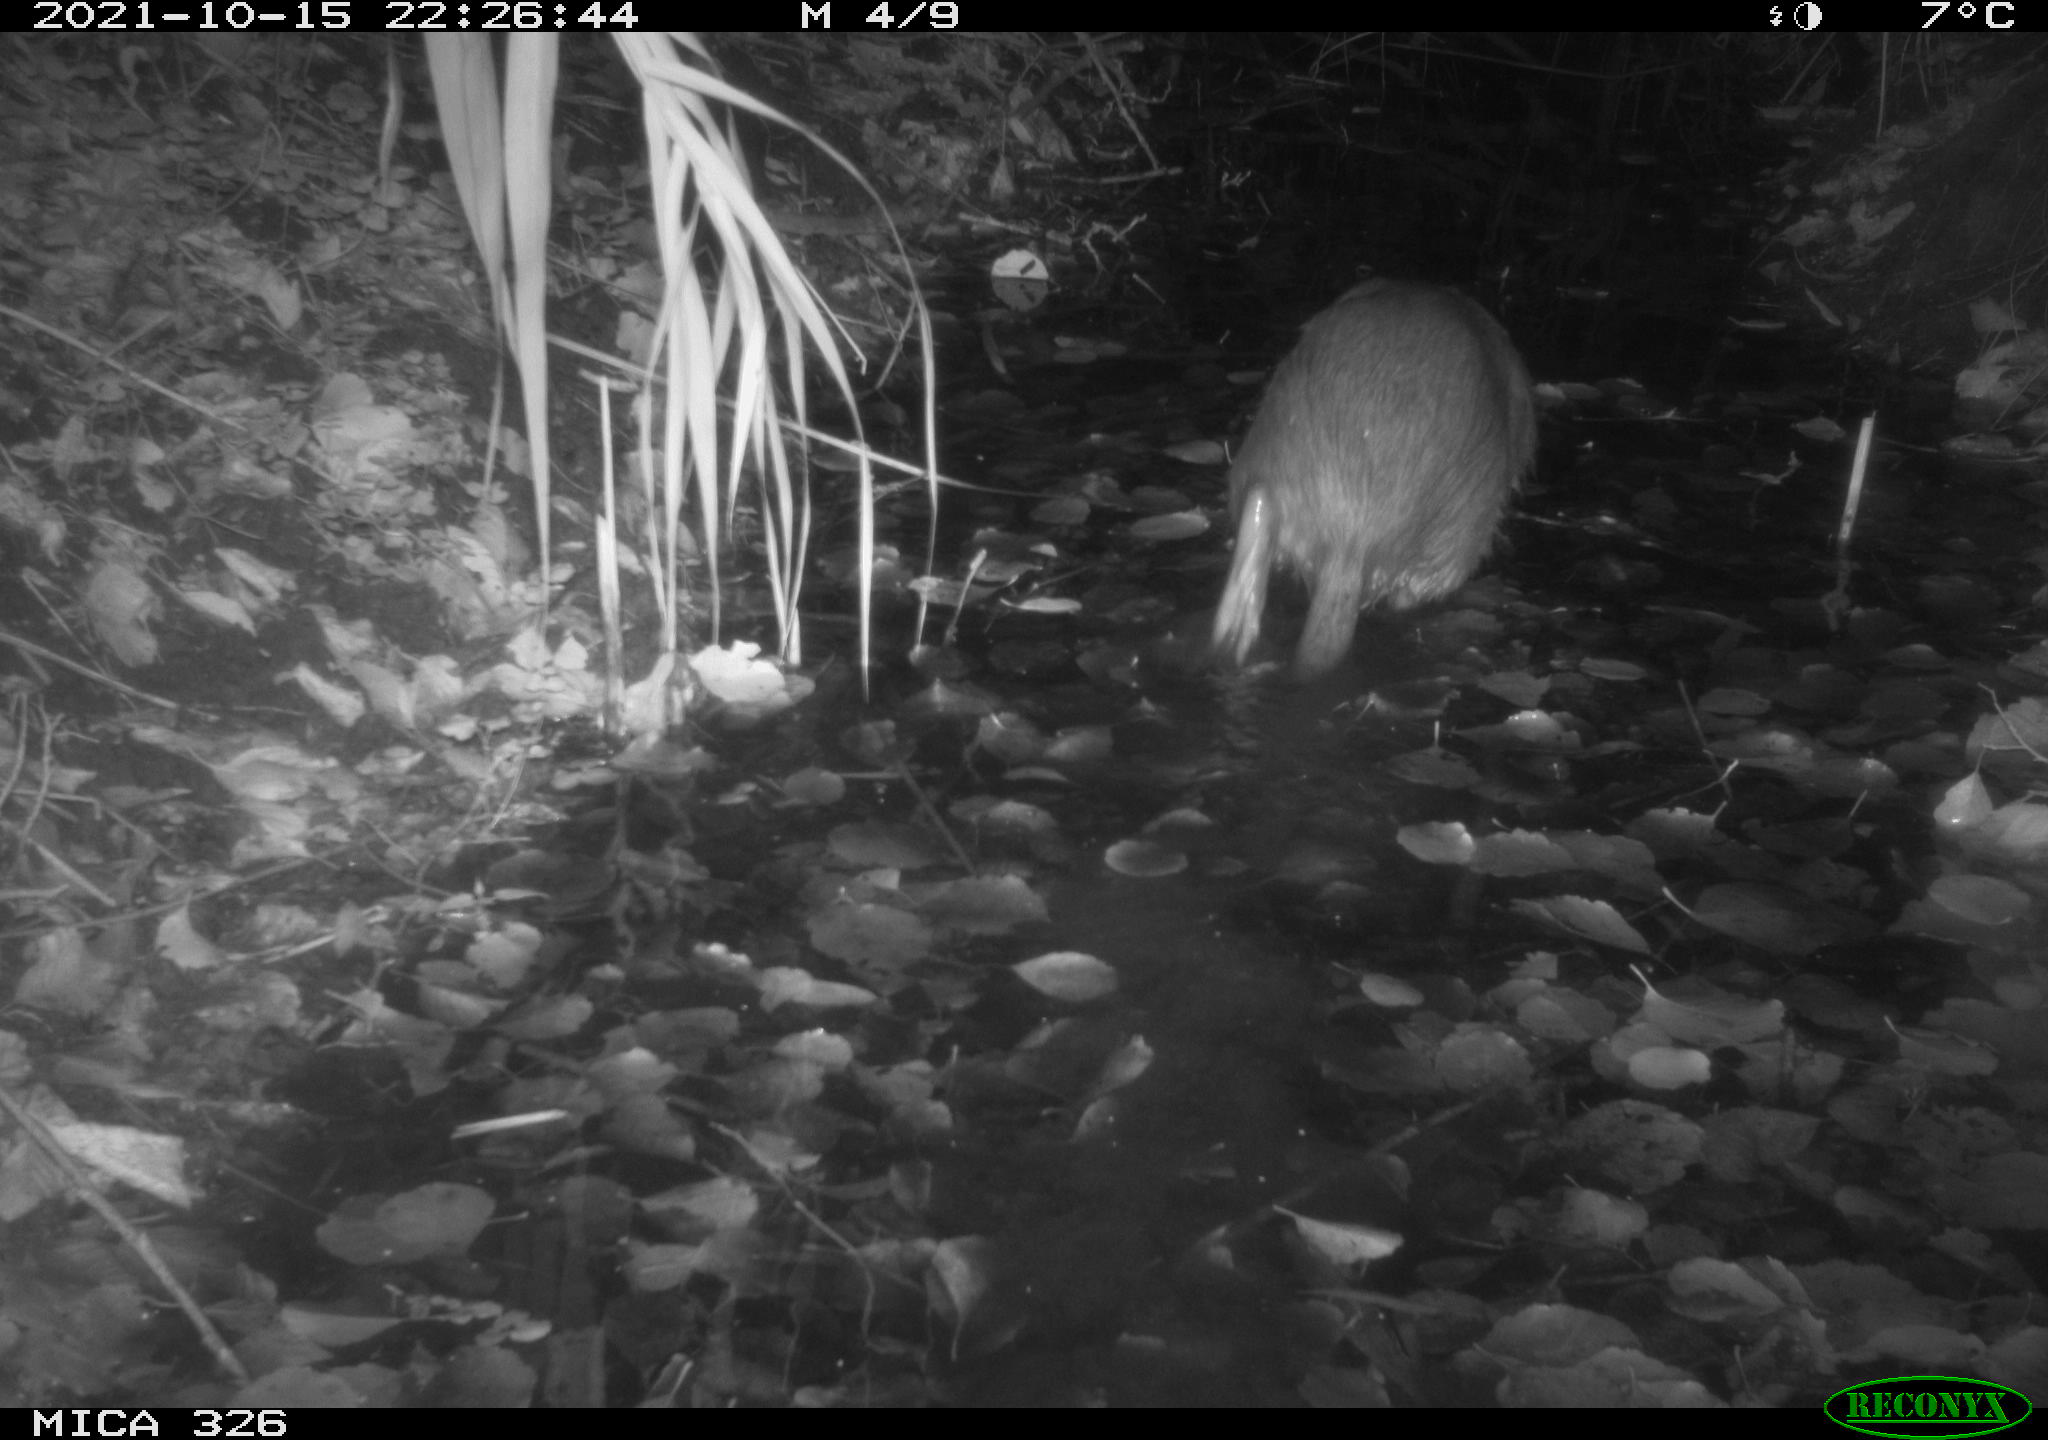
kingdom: Animalia
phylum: Chordata
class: Mammalia
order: Rodentia
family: Myocastoridae
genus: Myocastor
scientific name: Myocastor coypus
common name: Coypu
